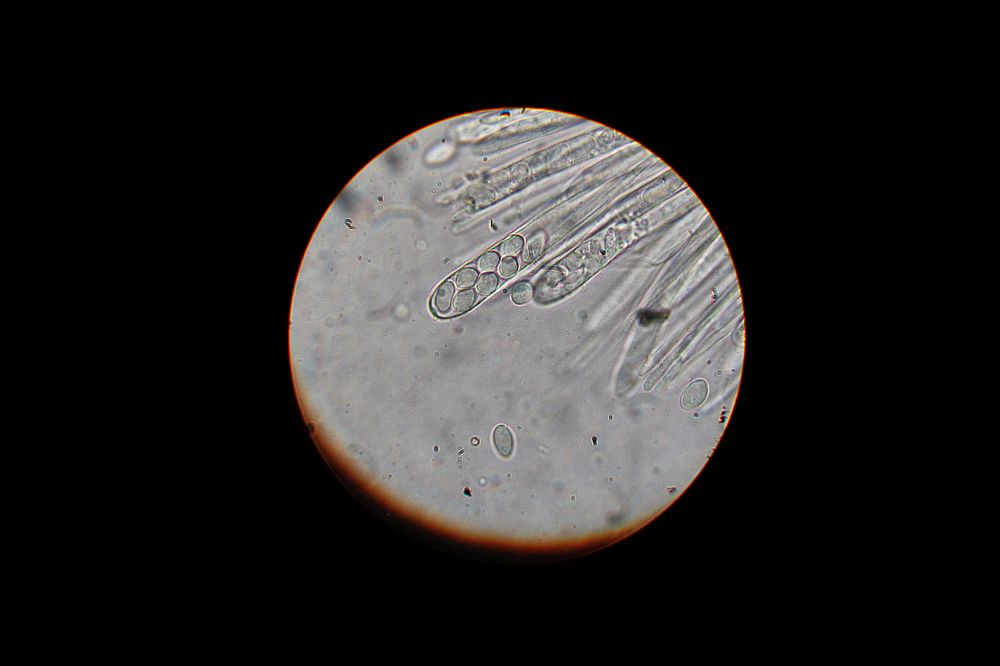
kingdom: Fungi
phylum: Ascomycota
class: Leotiomycetes
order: Helotiales
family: Sclerotiniaceae
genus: Ciboria
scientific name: Ciboria amentacea
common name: ellerakle-knoldskive
